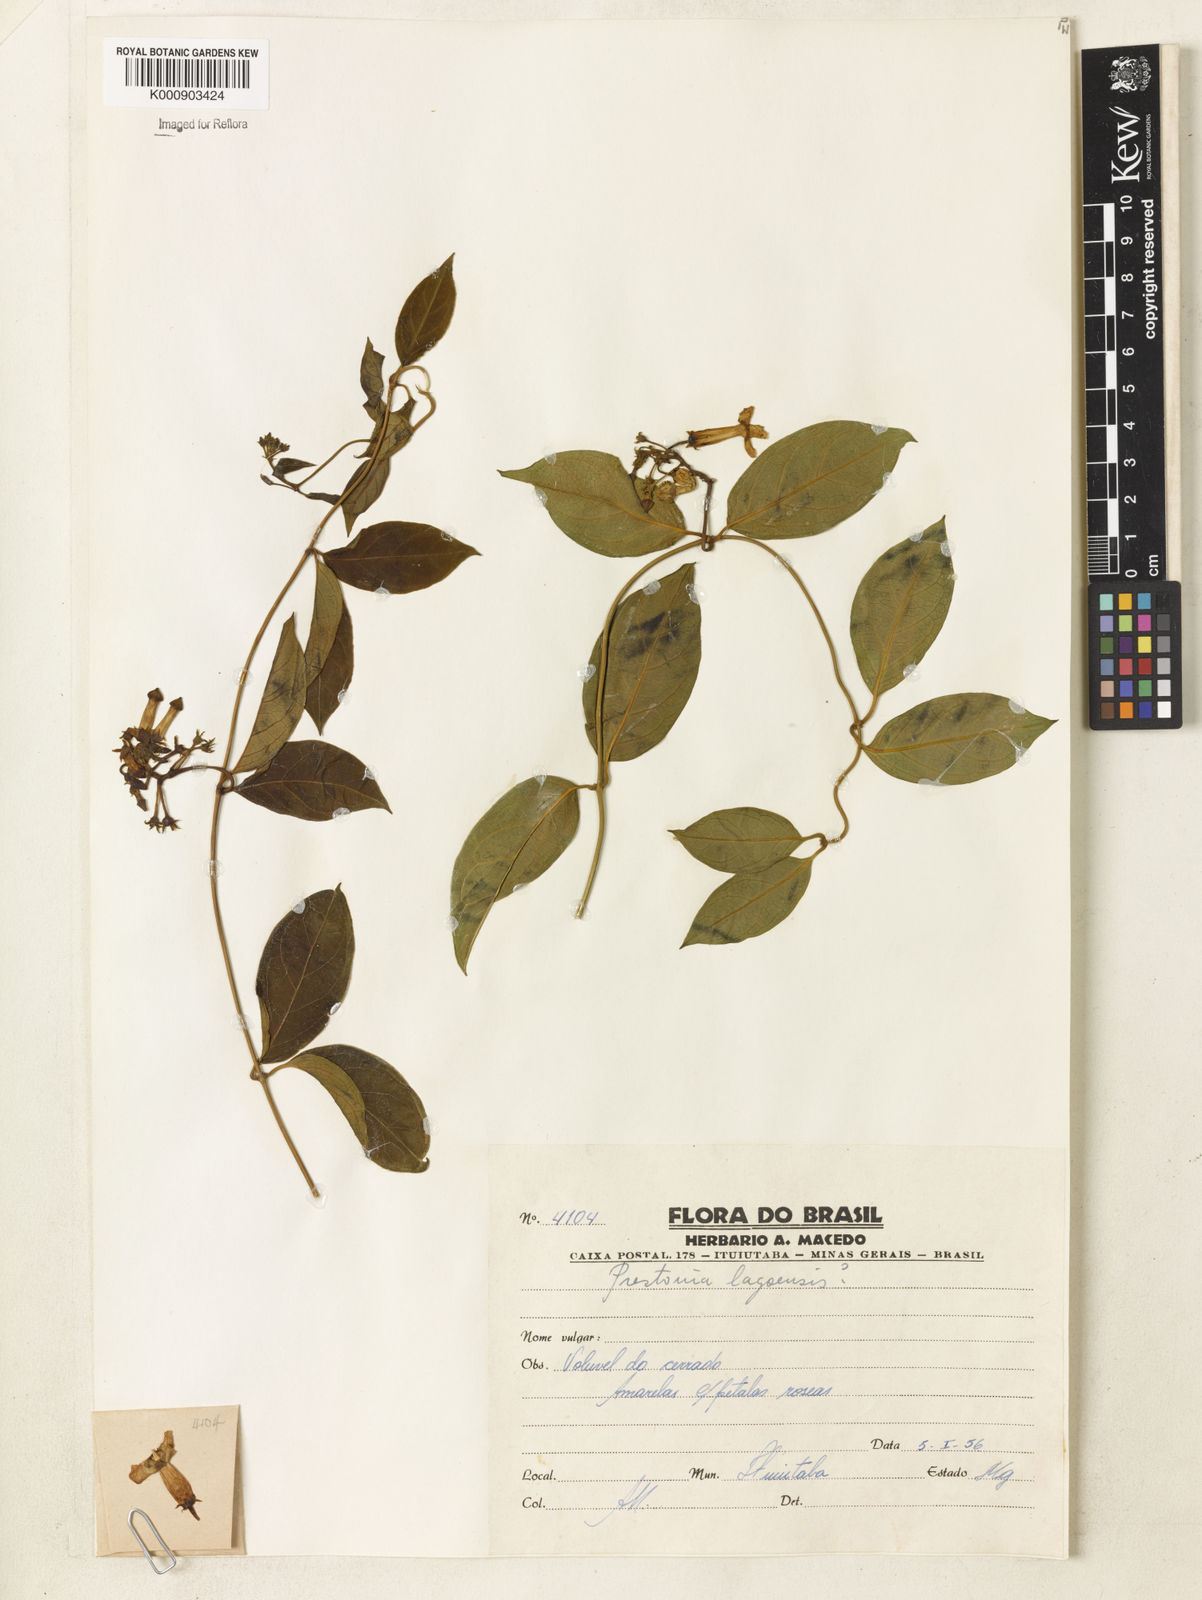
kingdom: Plantae
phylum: Tracheophyta
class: Magnoliopsida
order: Gentianales
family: Apocynaceae
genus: Prestonia
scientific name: Prestonia
